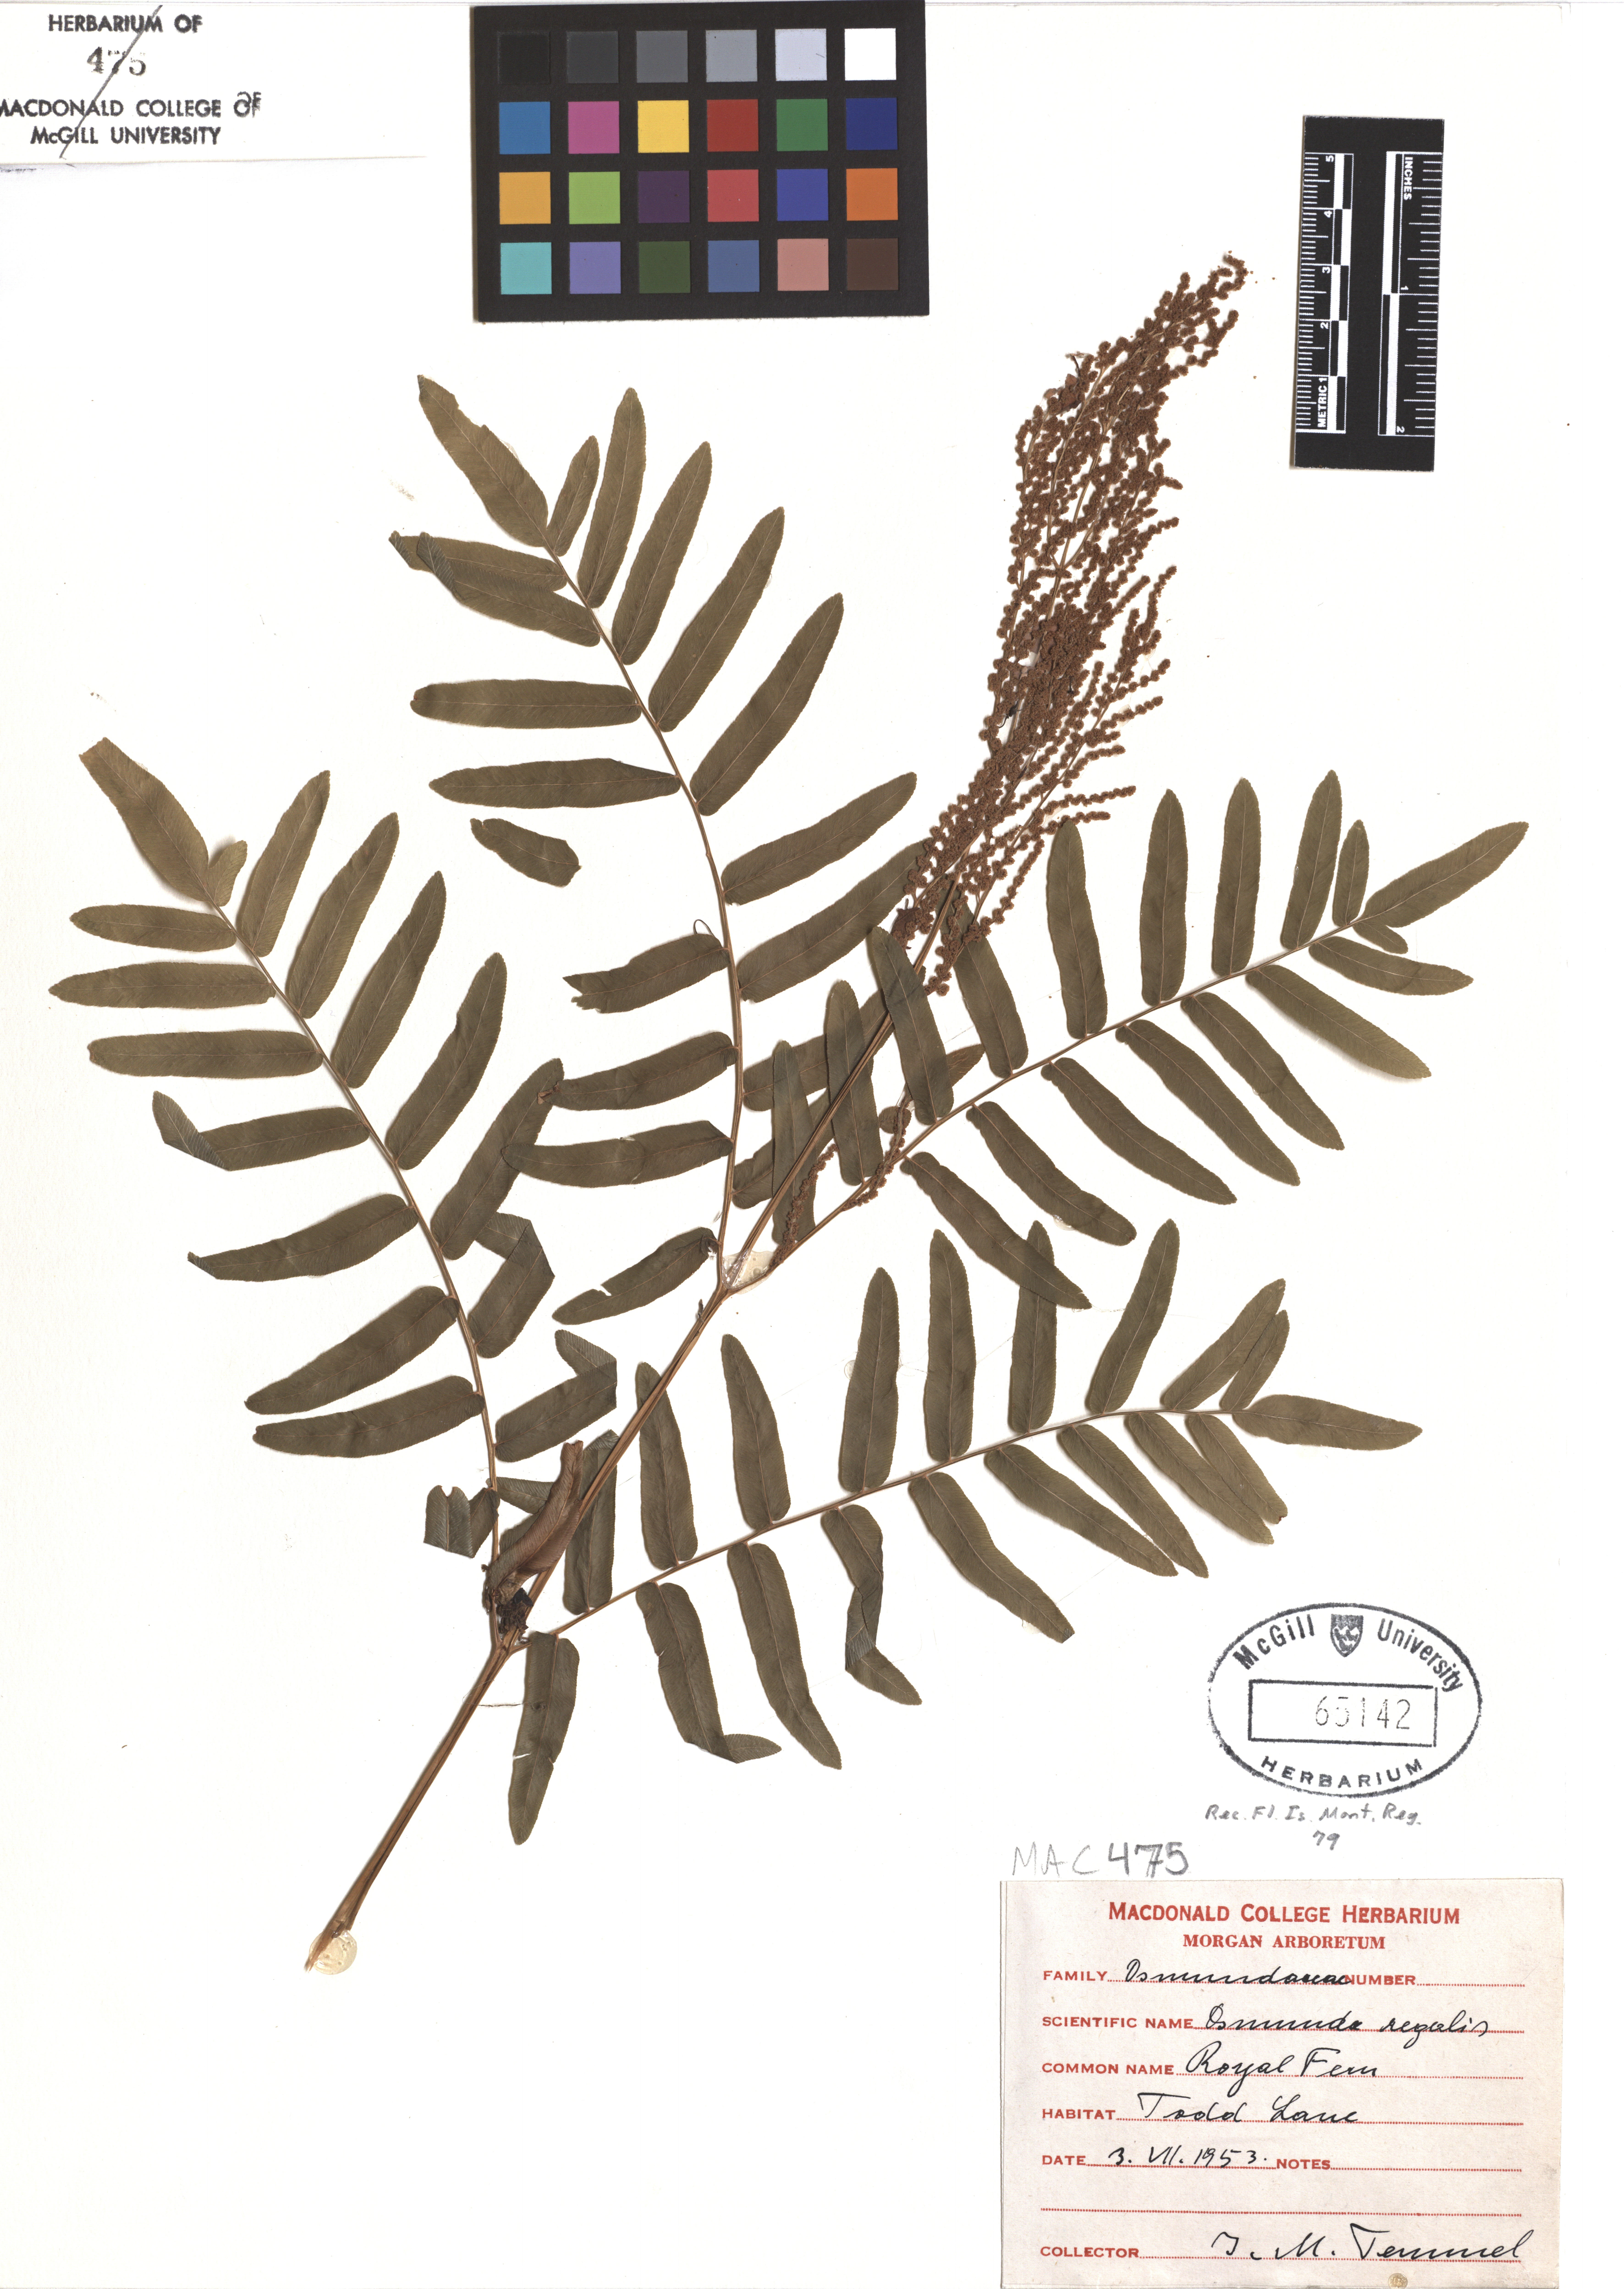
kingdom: Plantae
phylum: Tracheophyta
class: Polypodiopsida
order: Osmundales
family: Osmundaceae
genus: Osmunda
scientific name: Osmunda regalis
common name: Royal fern
